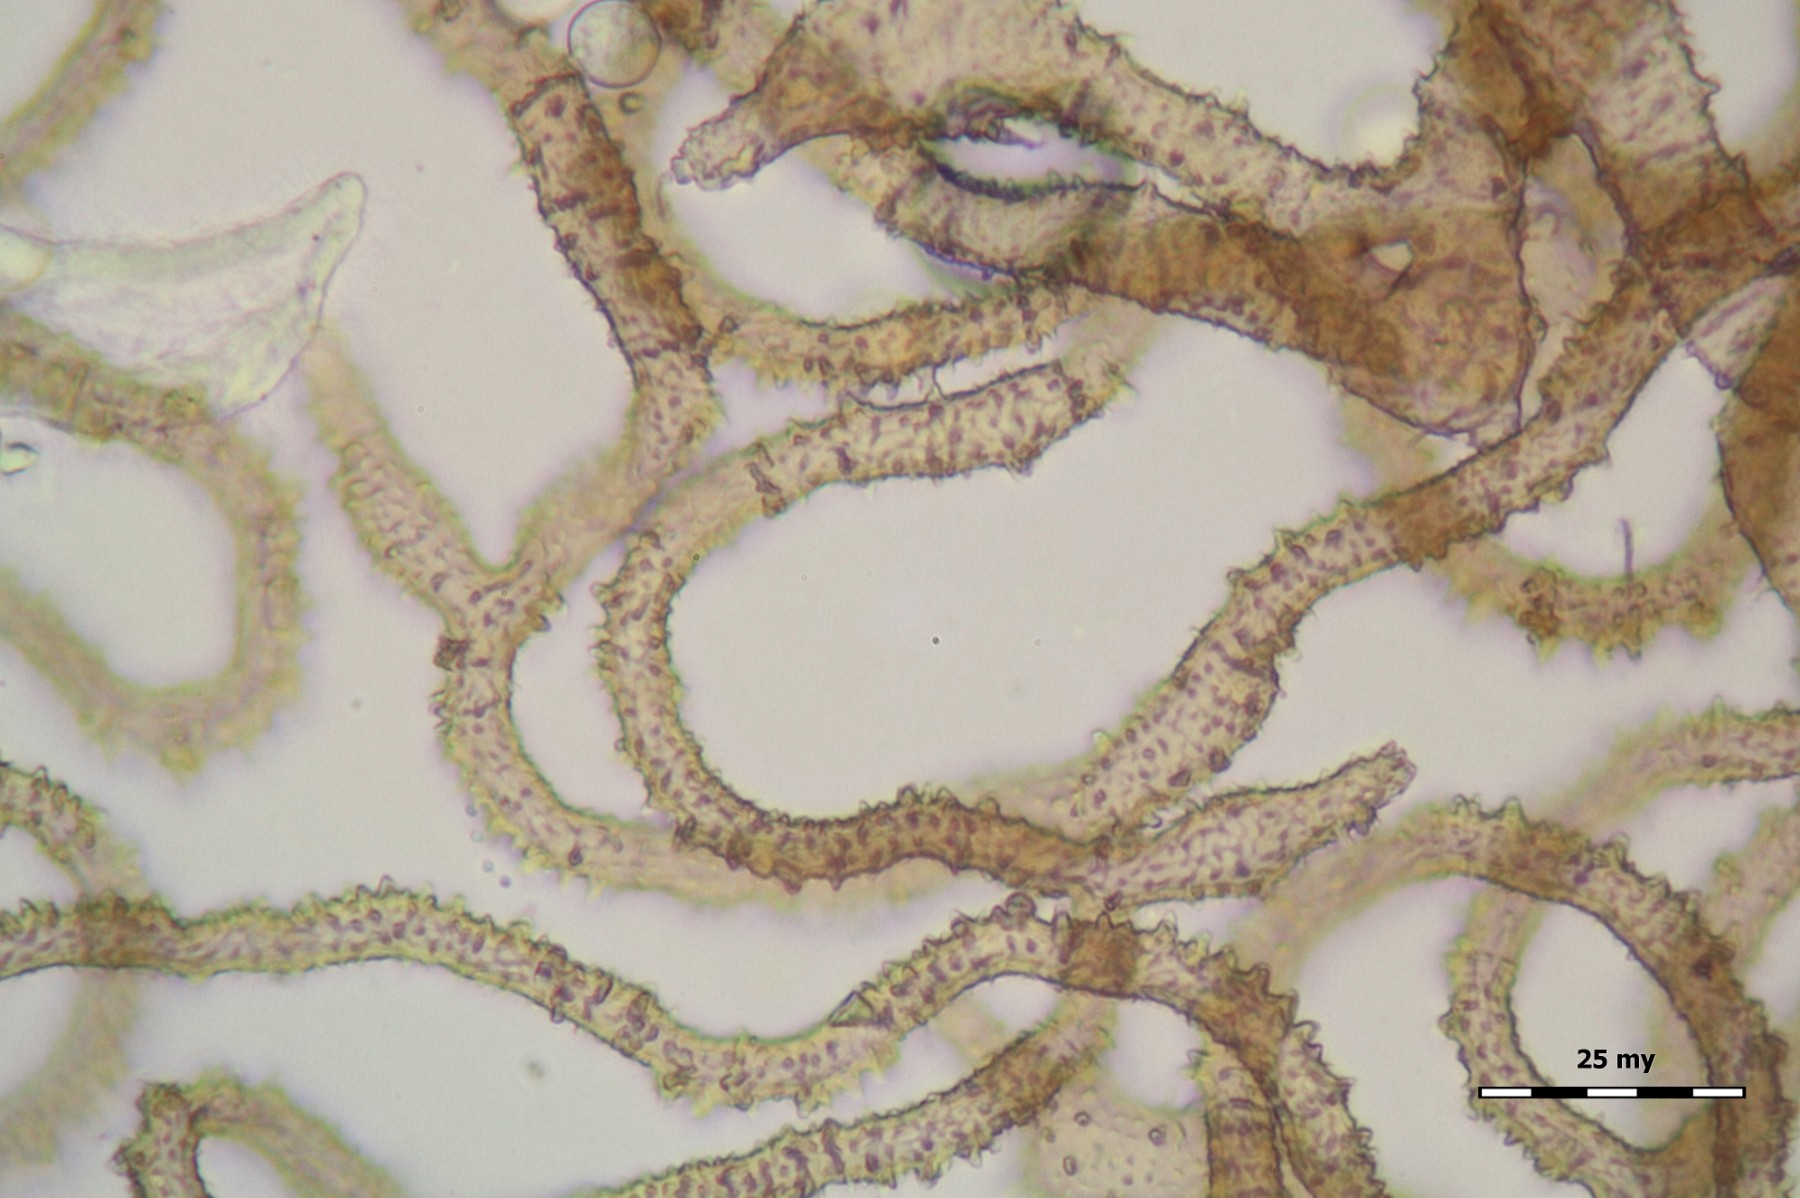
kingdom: Protozoa
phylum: Amoebozoa
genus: Arcyria
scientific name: Arcyria
